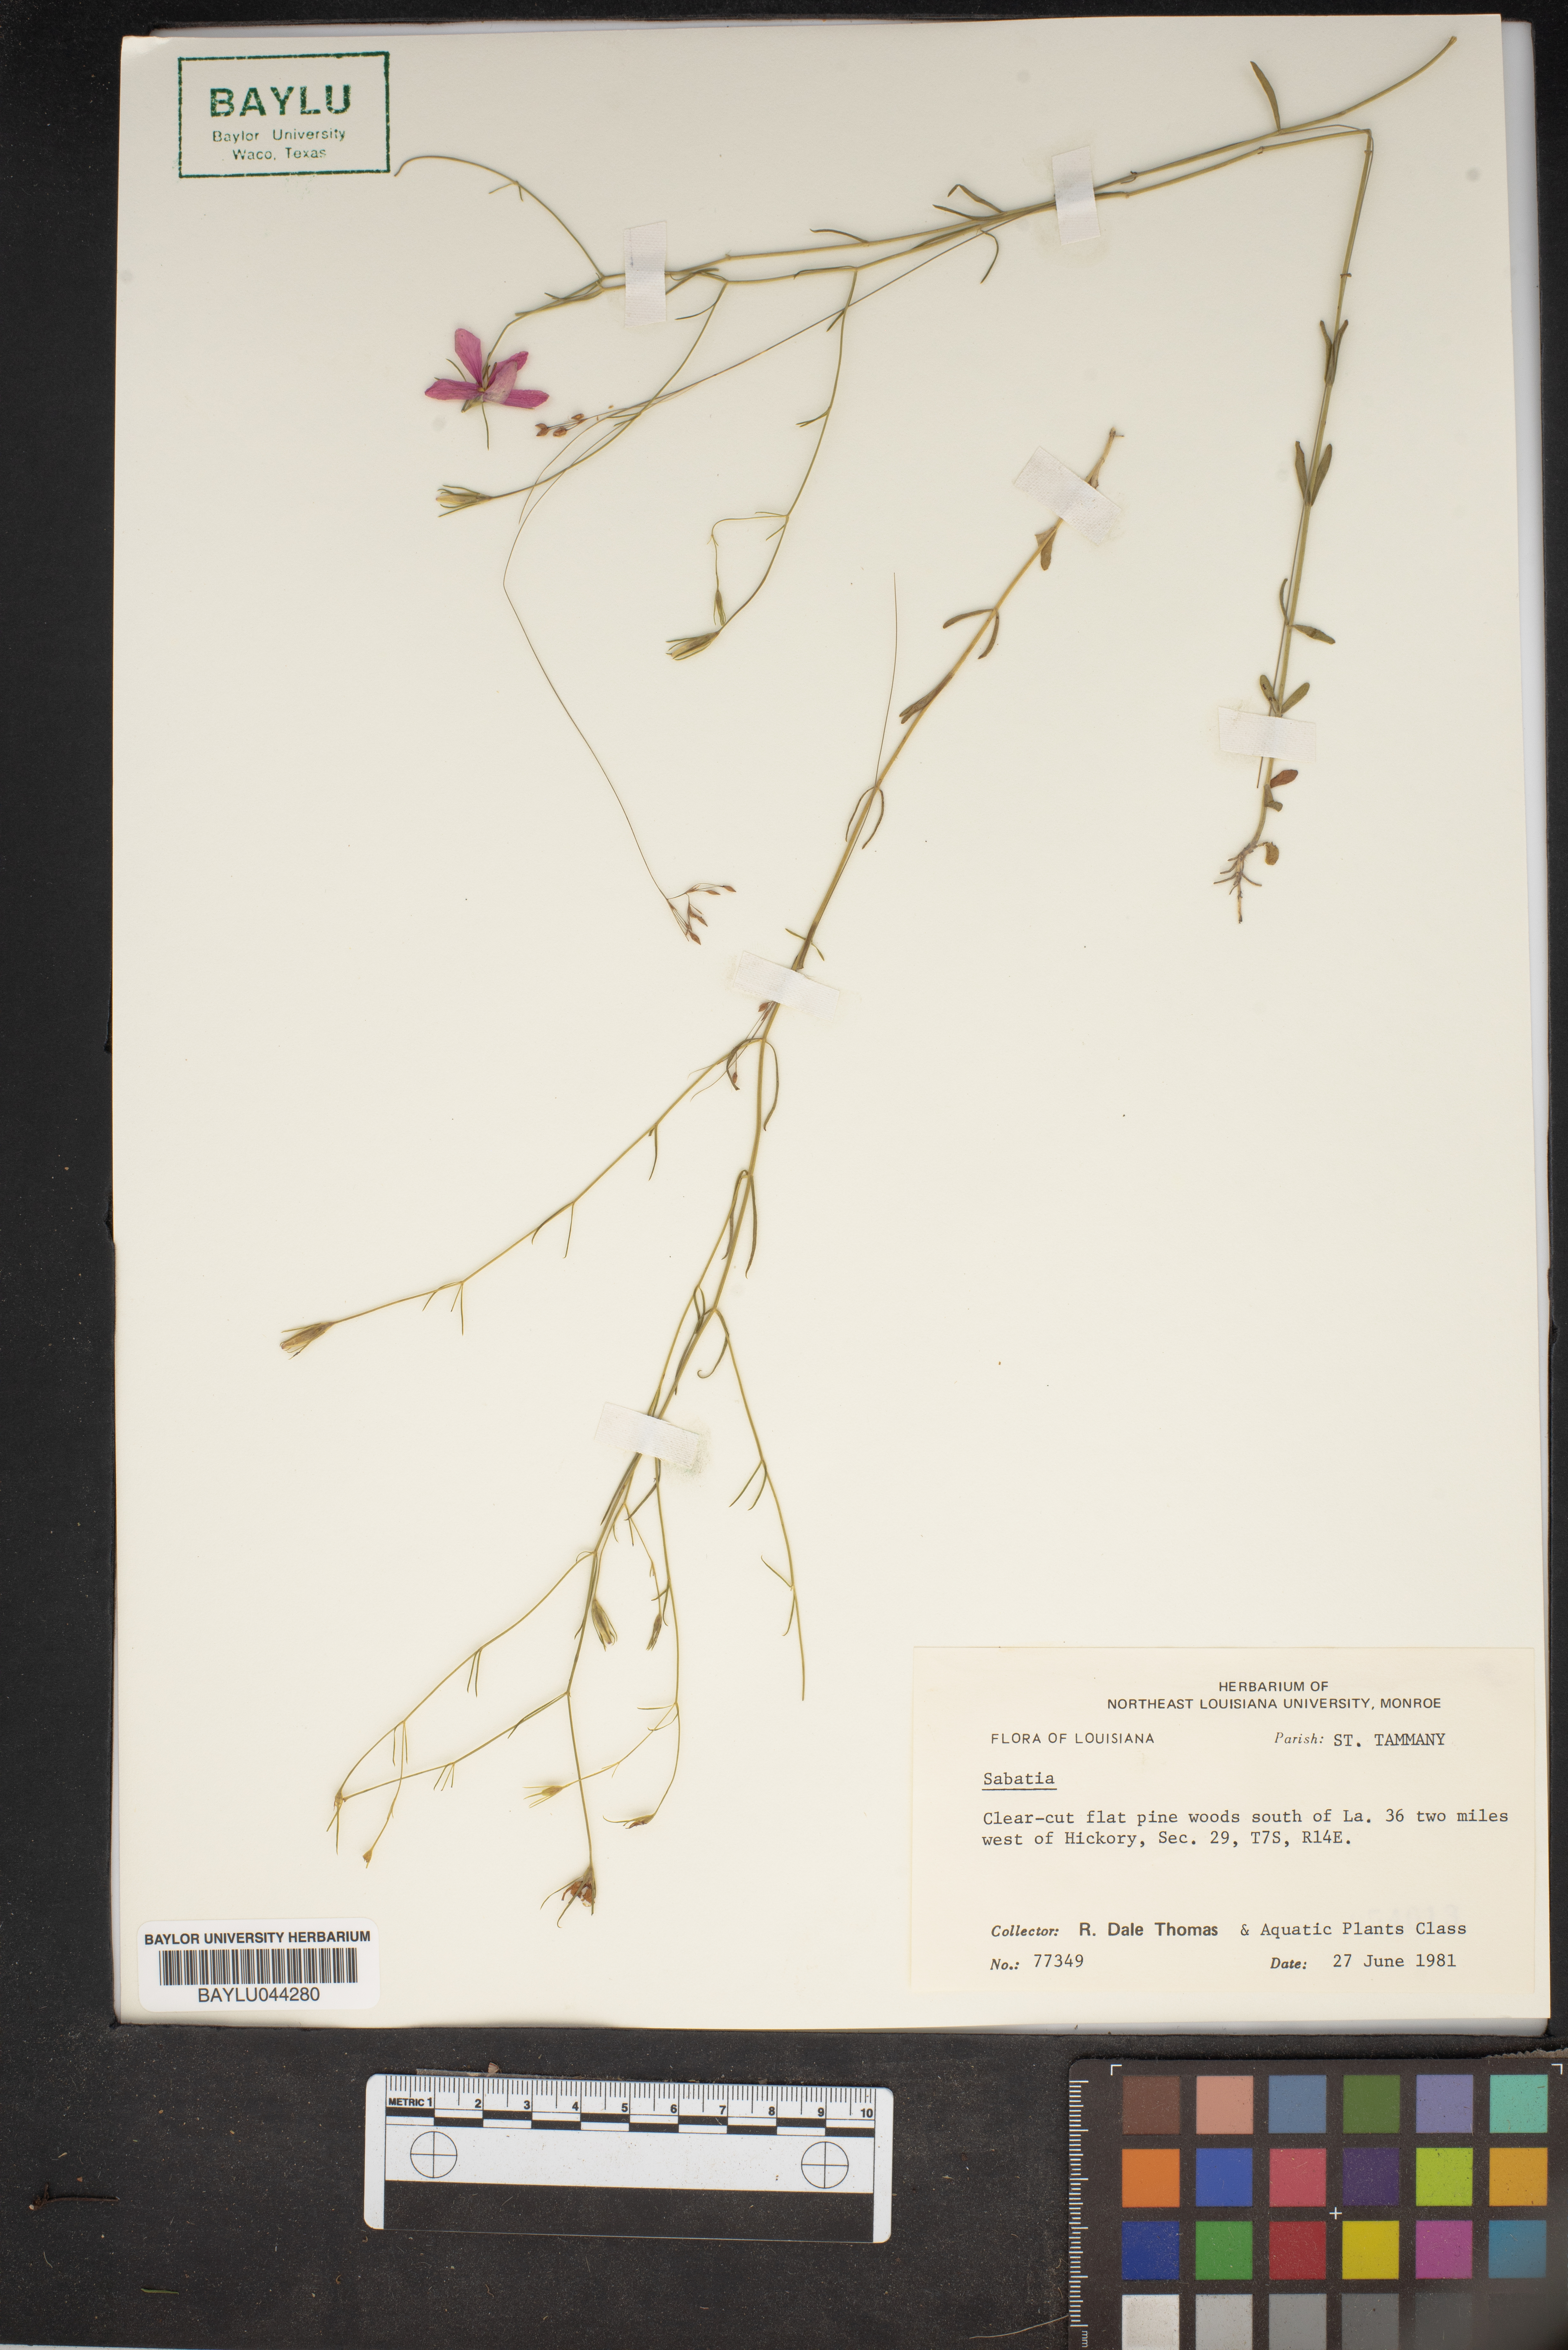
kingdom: Plantae
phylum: Tracheophyta
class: Magnoliopsida
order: Gentianales
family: Gentianaceae
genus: Sabatia
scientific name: Sabatia
